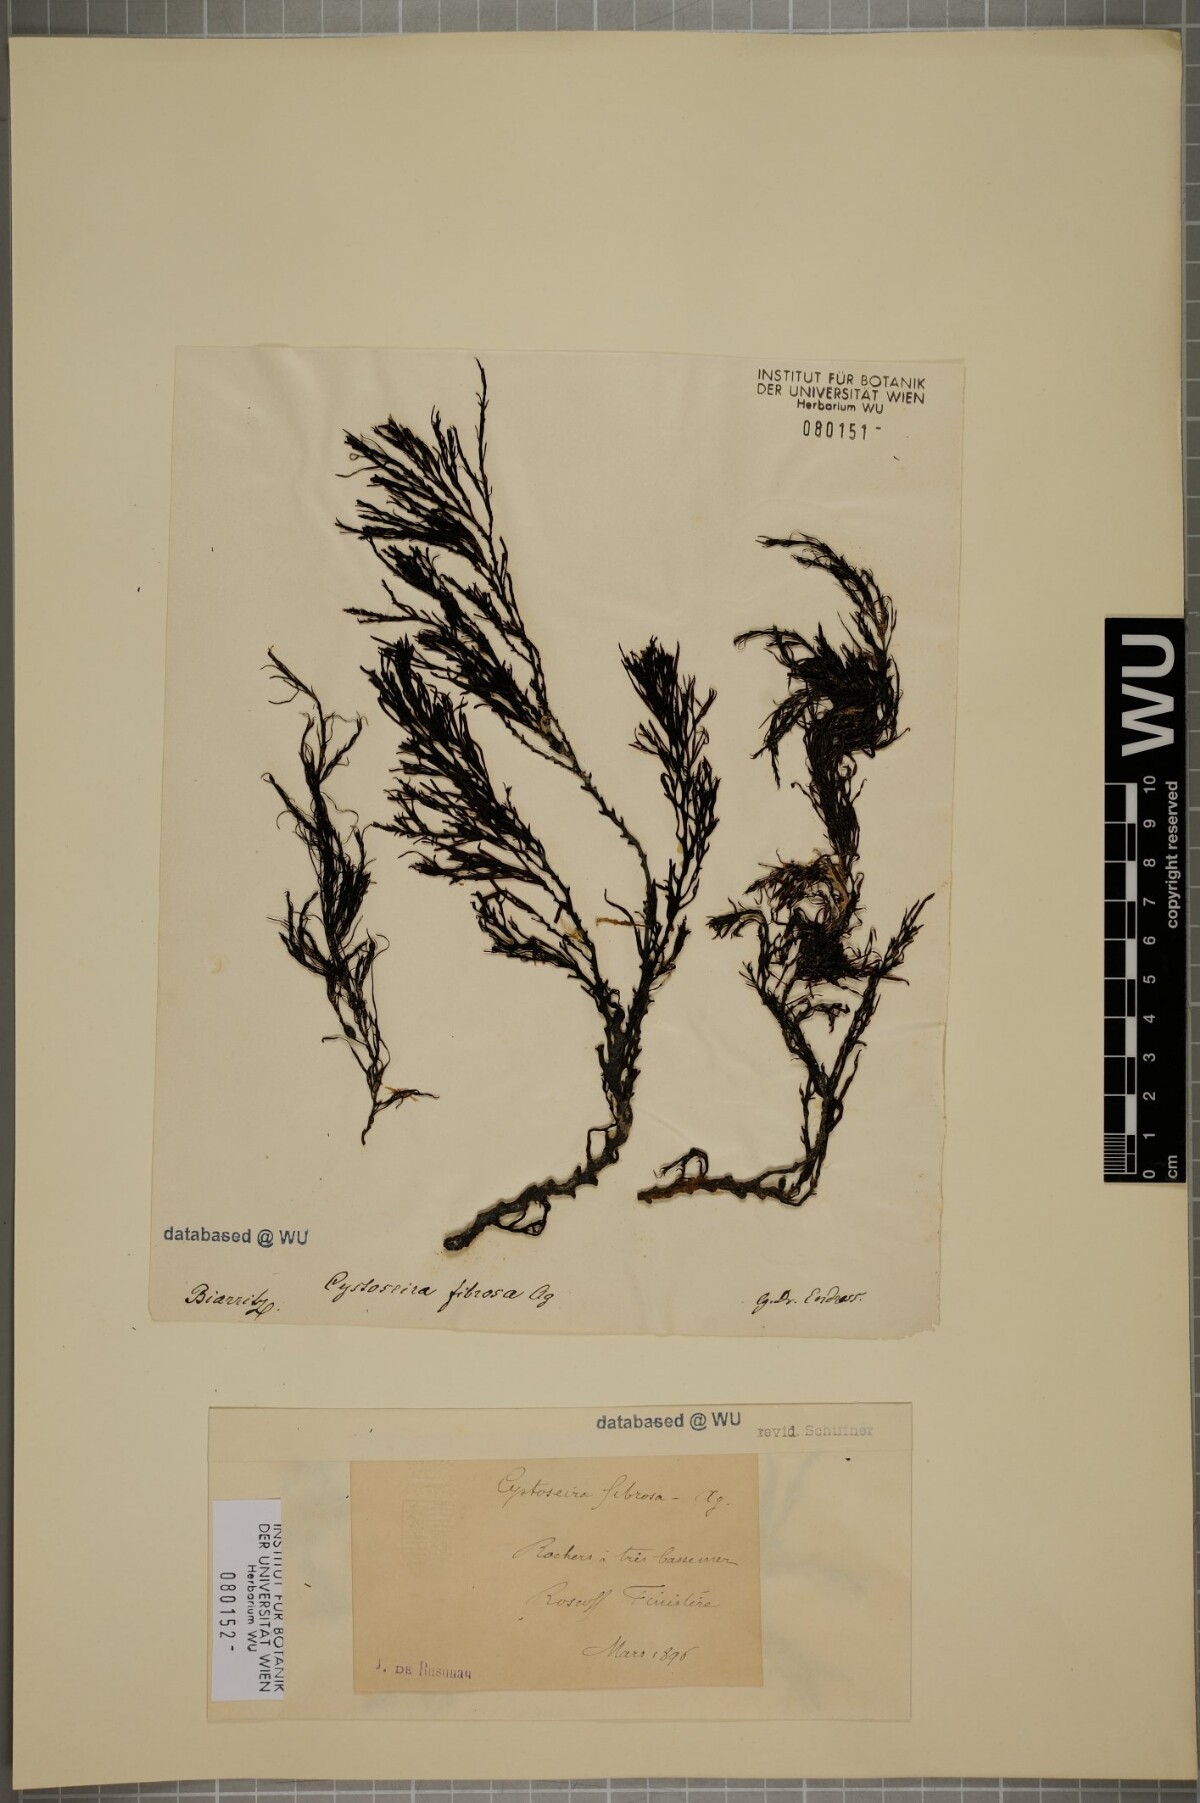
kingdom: Chromista
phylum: Ochrophyta
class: Phaeophyceae
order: Fucales
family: Sargassaceae
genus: Cystoseira
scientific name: Cystoseira Gongolaria baccata
